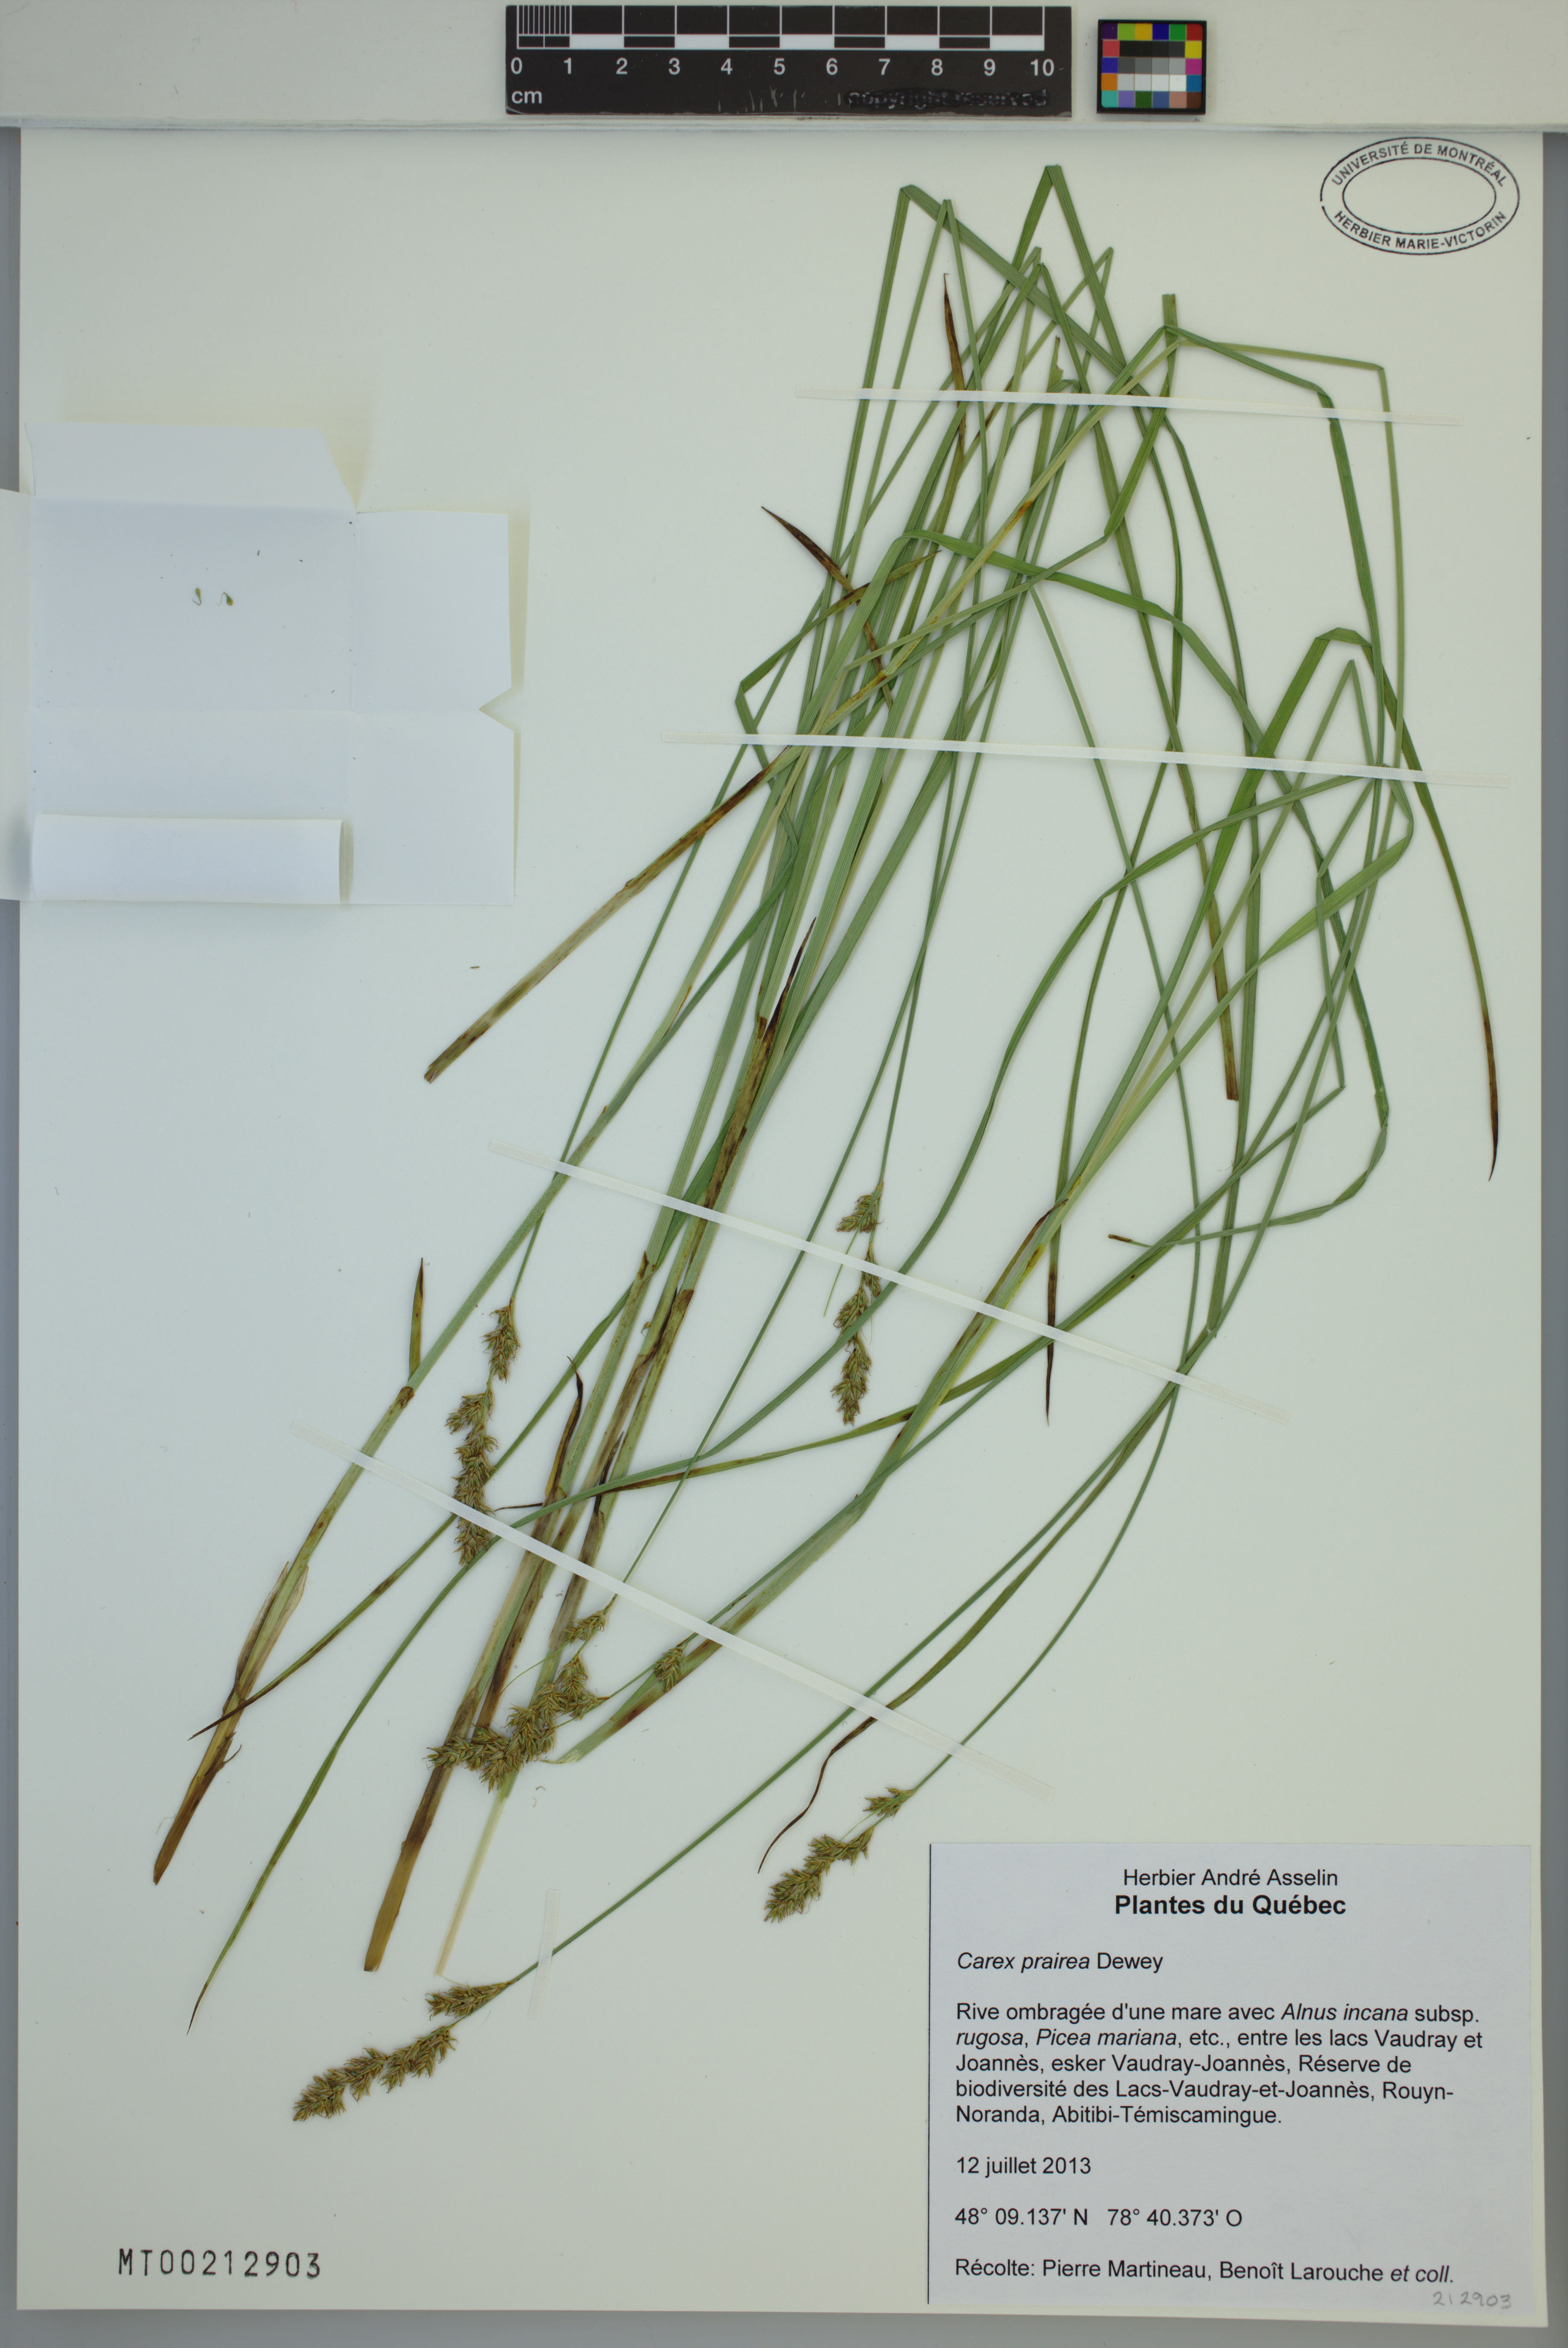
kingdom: Plantae
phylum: Tracheophyta
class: Liliopsida
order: Poales
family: Cyperaceae
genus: Carex
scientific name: Carex prairea
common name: Prairie sedge
